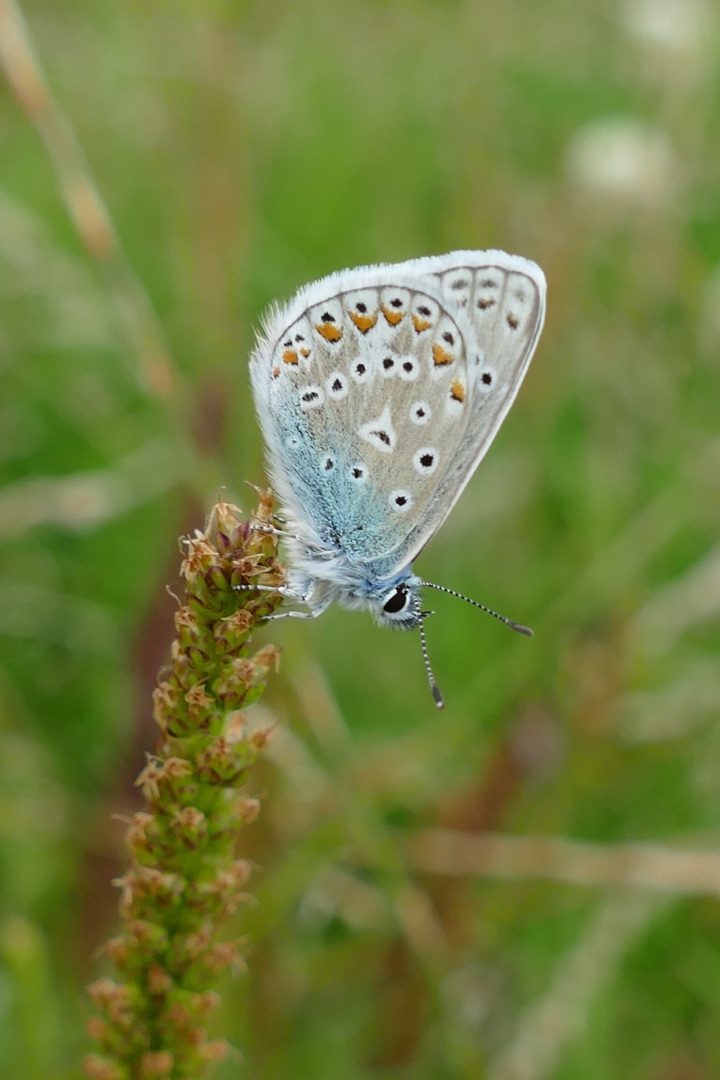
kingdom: Animalia
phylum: Arthropoda
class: Insecta
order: Lepidoptera
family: Lycaenidae
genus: Polyommatus
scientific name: Polyommatus icarus
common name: Almindelig blåfugl
